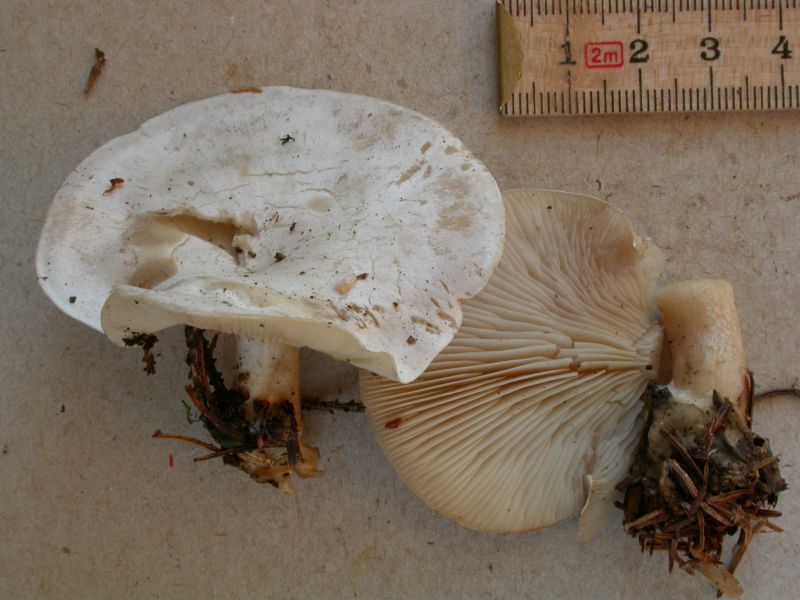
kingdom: Fungi
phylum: Basidiomycota
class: Agaricomycetes
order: Agaricales
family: Tricholomataceae
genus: Clitocybe
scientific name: Clitocybe phyllophila
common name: løv-tragthat
